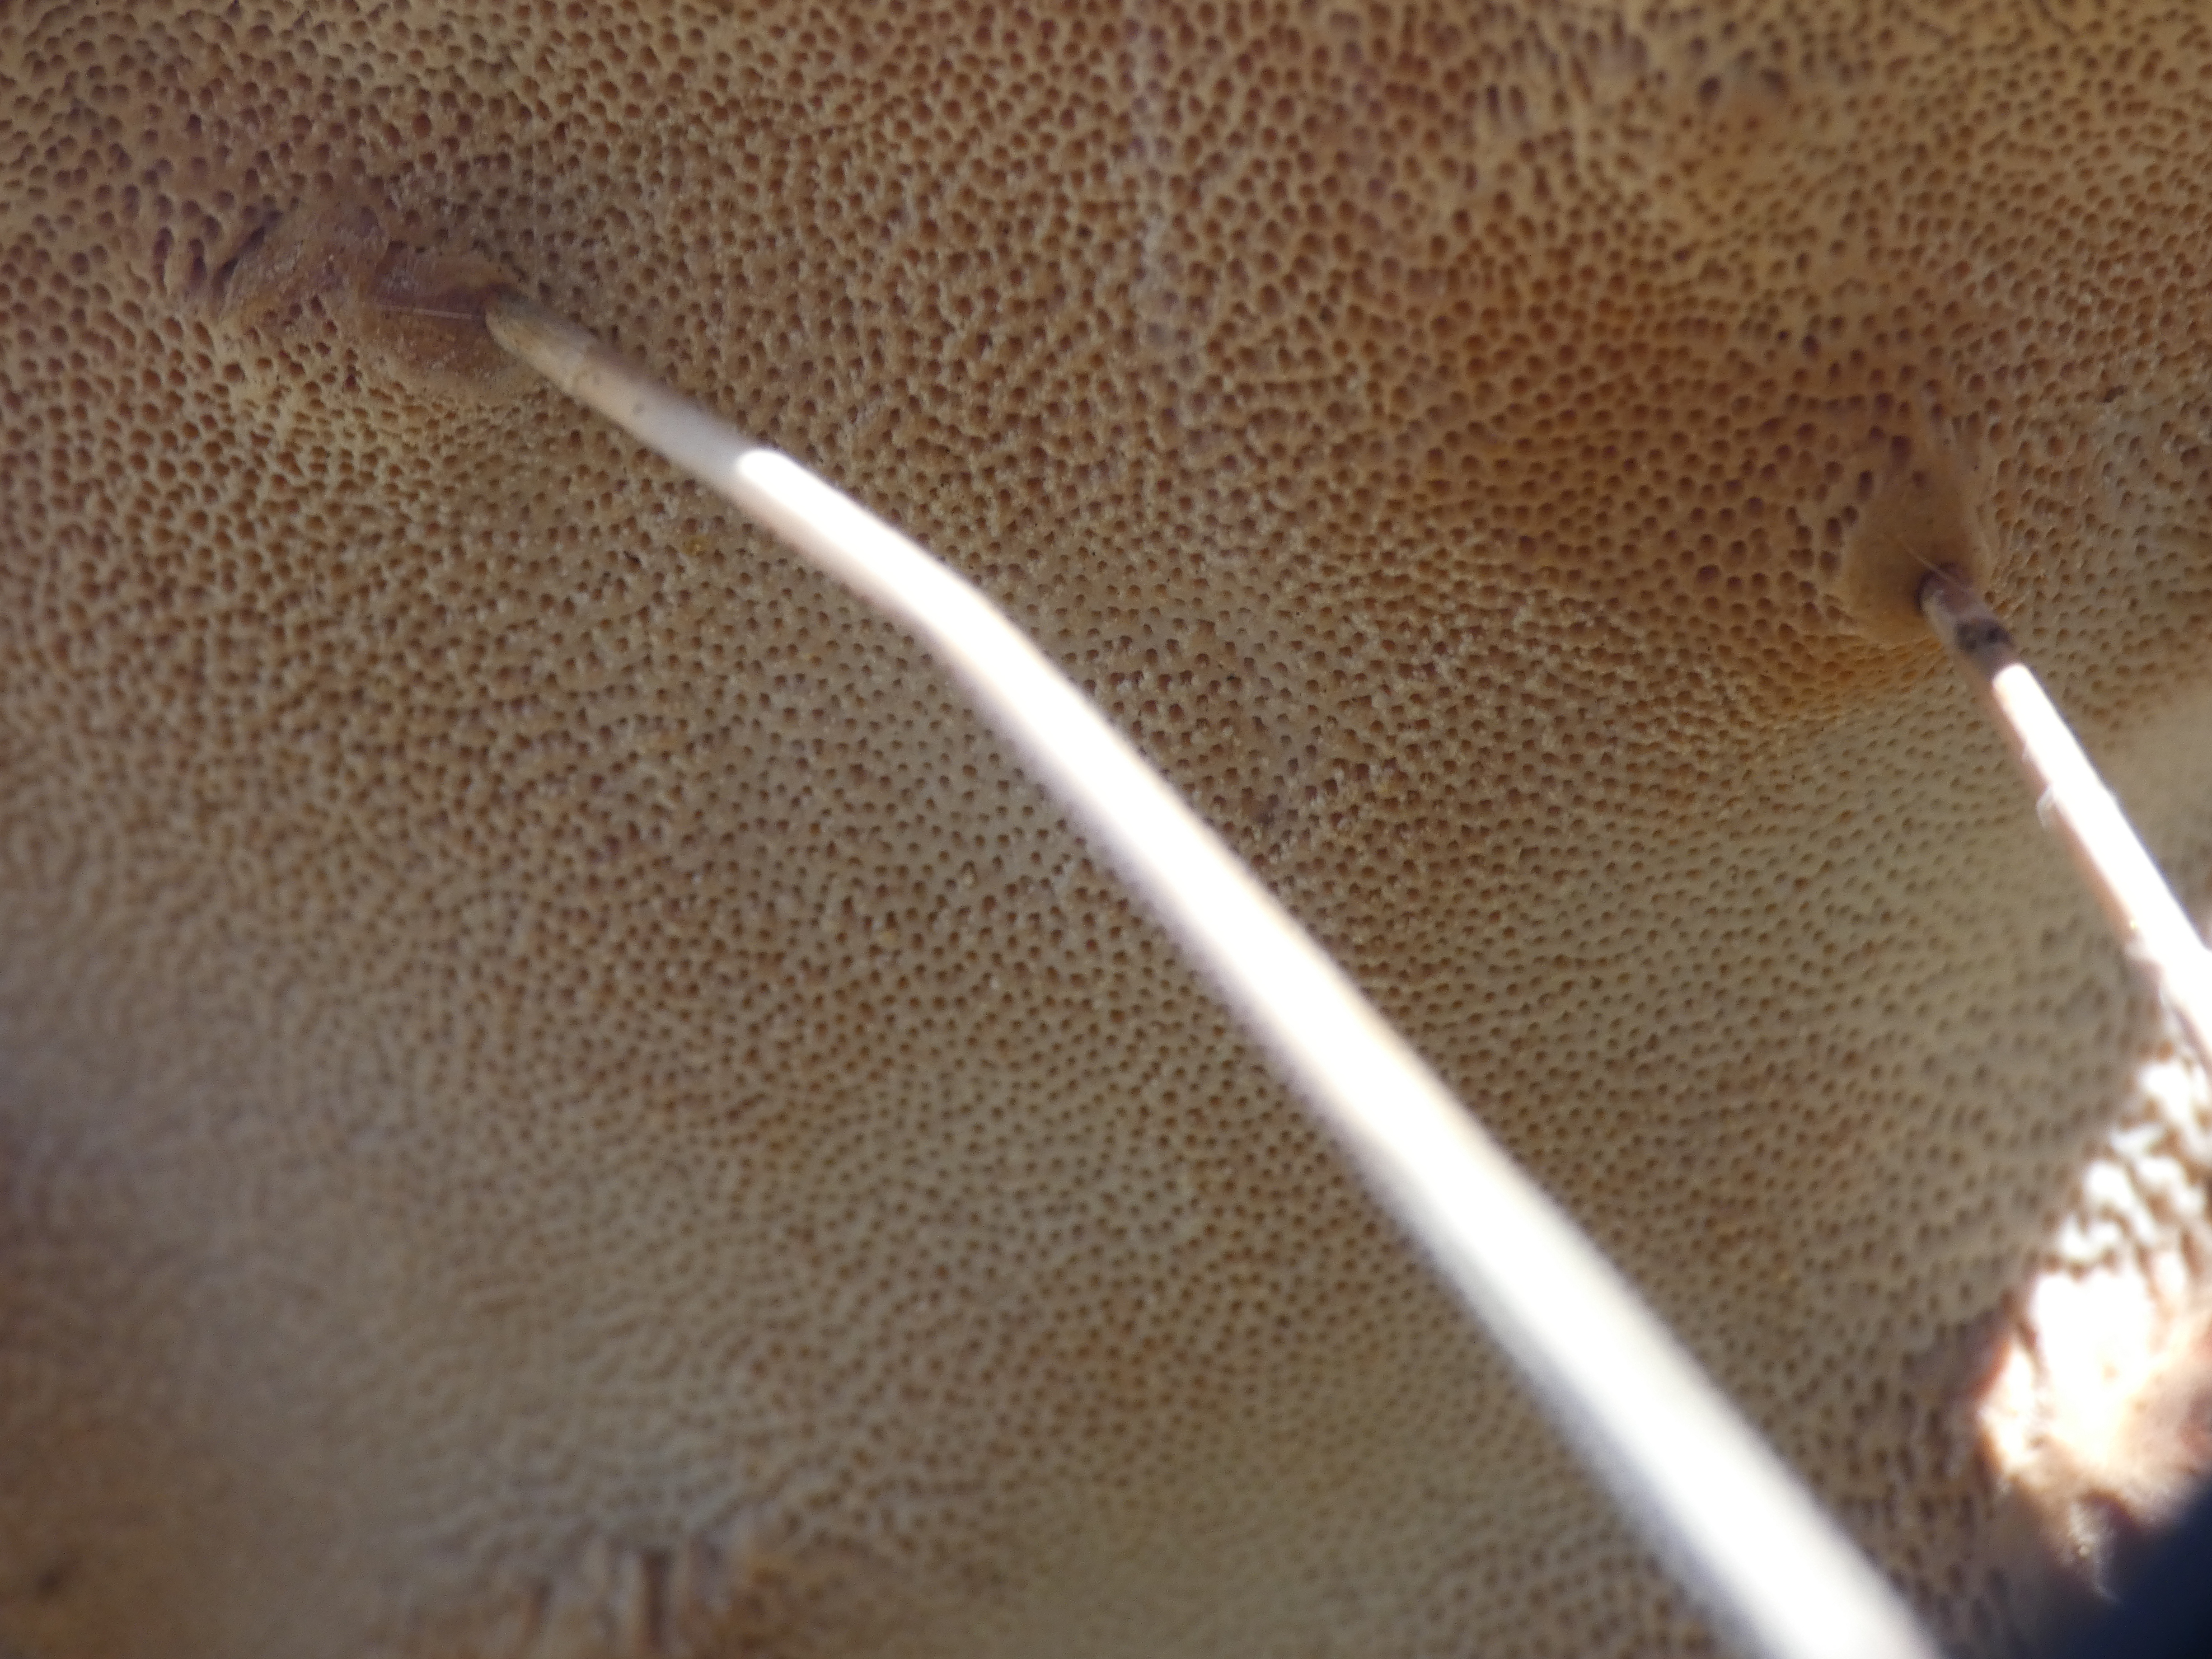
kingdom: Fungi
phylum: Basidiomycota
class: Agaricomycetes
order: Polyporales
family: Fomitopsidaceae
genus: Fomitopsis
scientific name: Fomitopsis pinicola
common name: Randbæltet hovporesvamp
